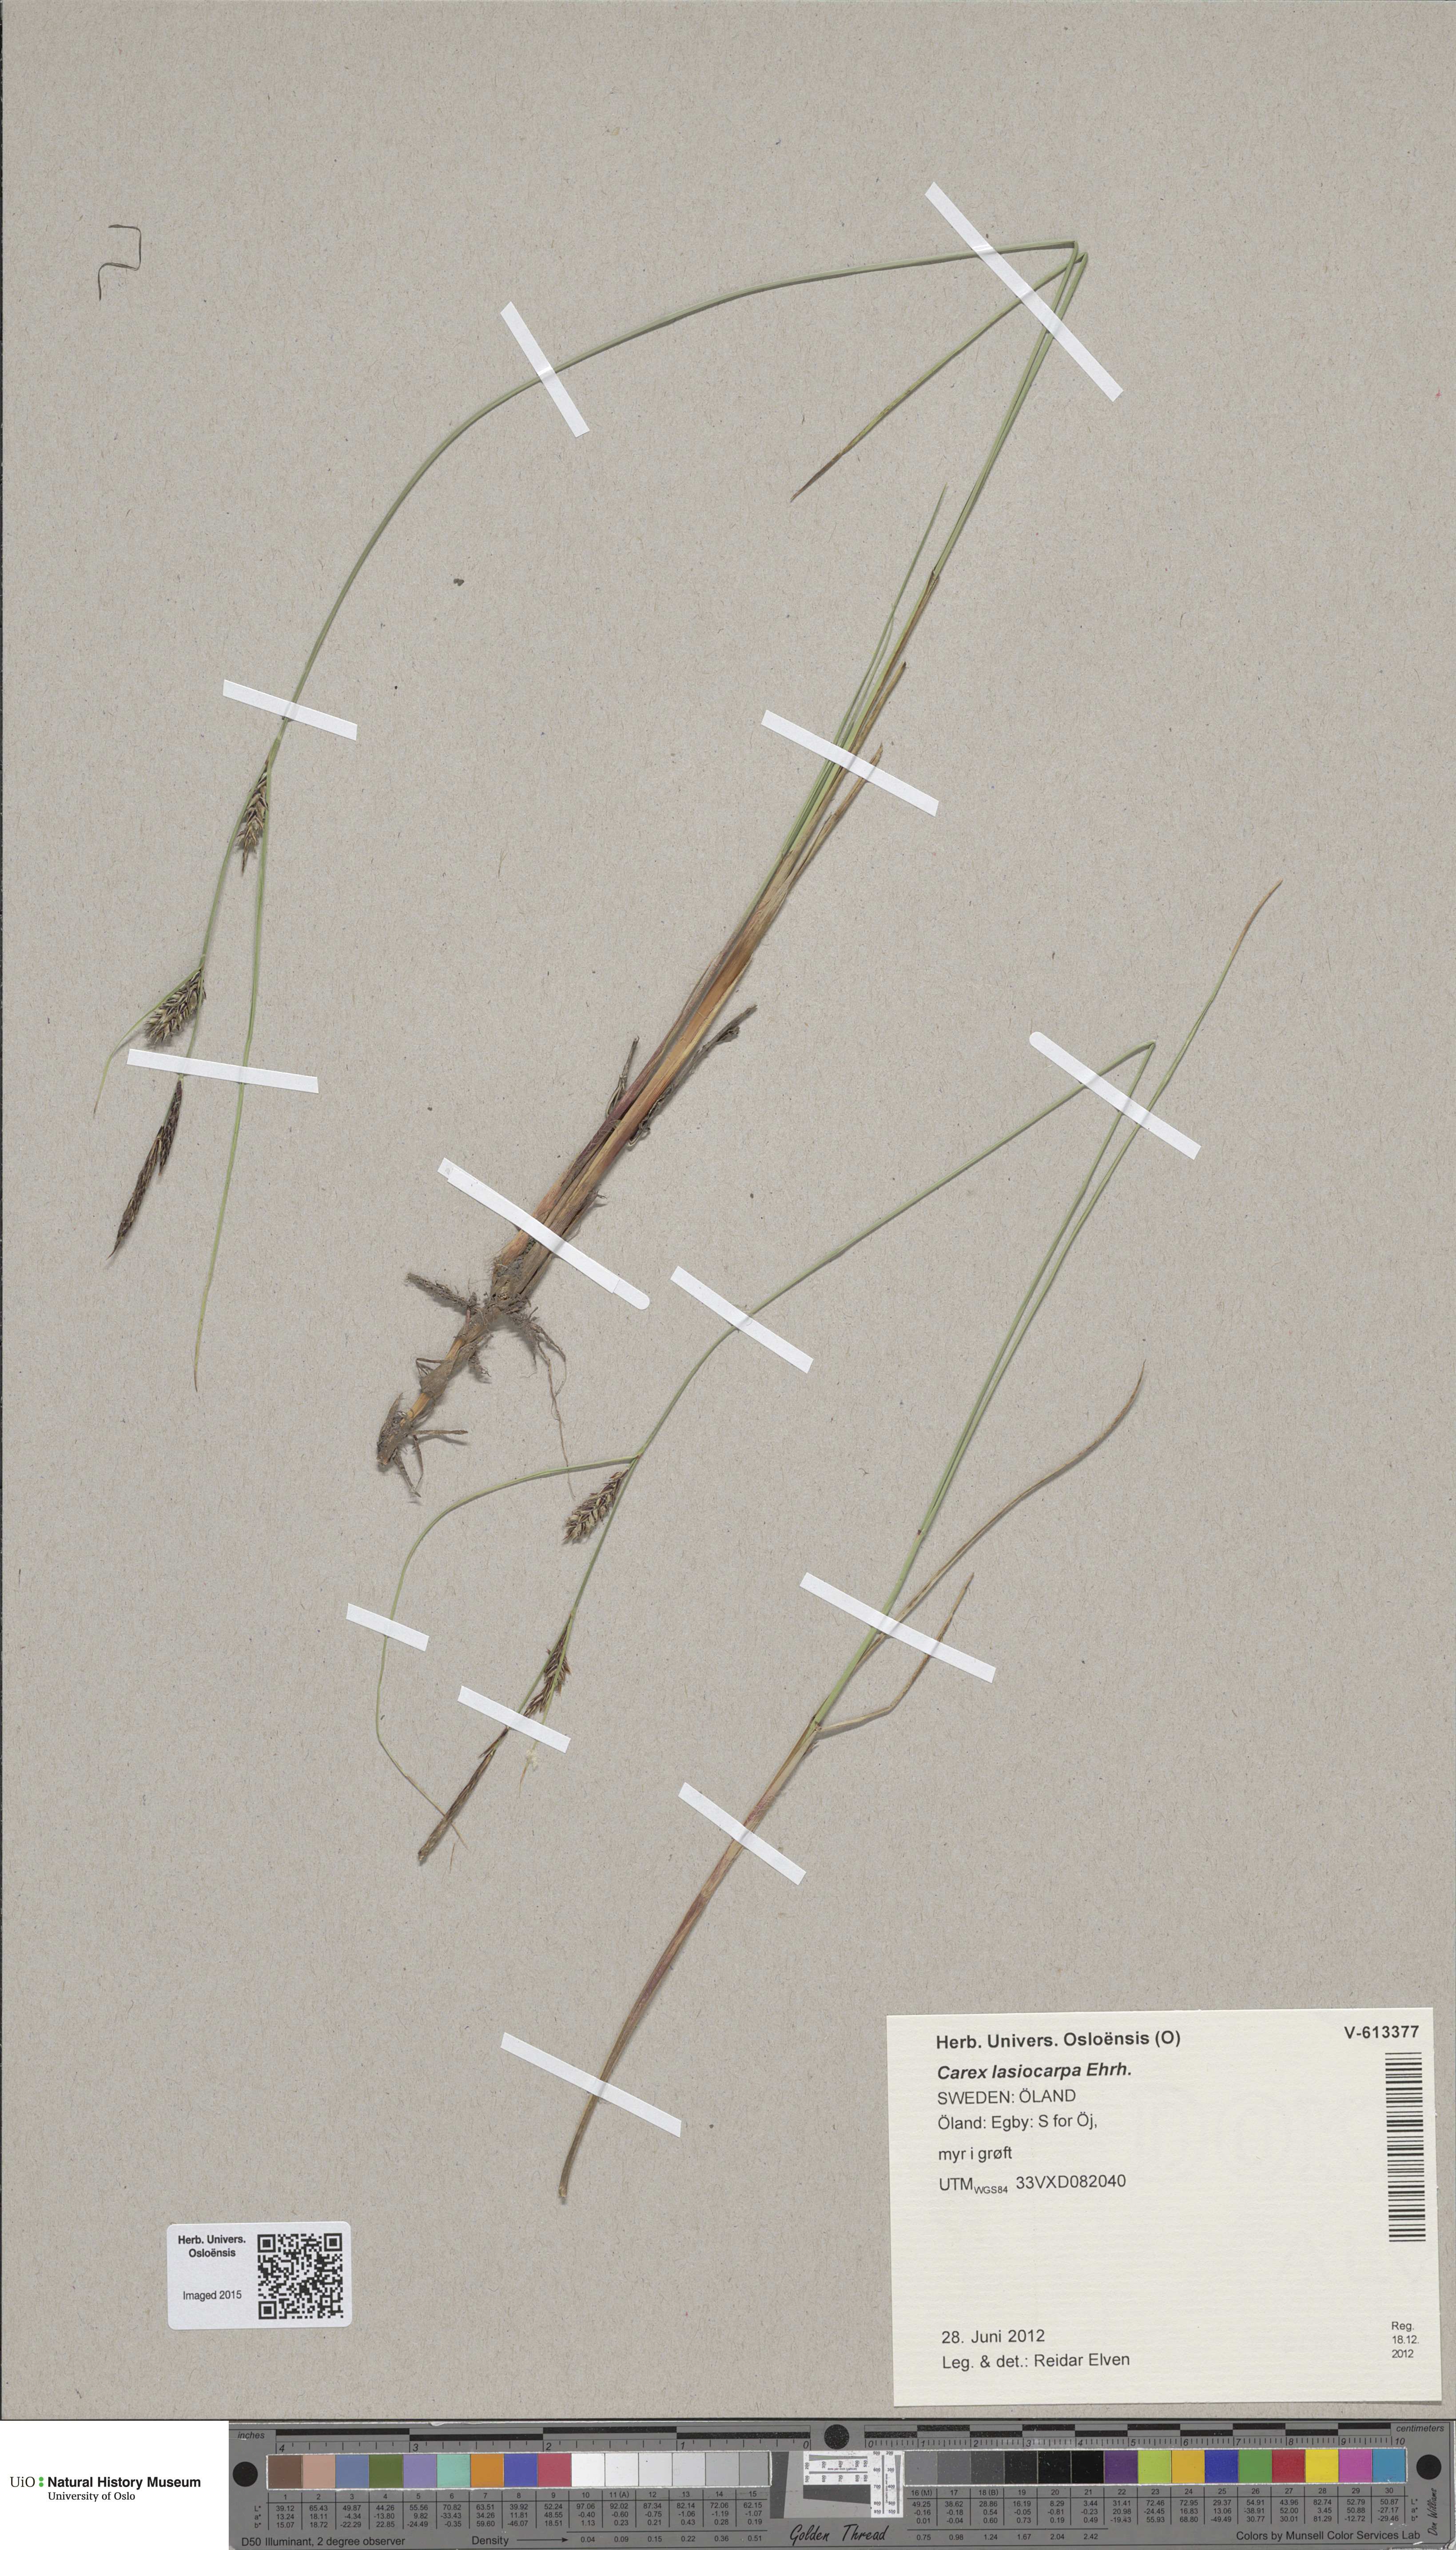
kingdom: Plantae
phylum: Tracheophyta
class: Liliopsida
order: Poales
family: Cyperaceae
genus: Carex
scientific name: Carex lasiocarpa
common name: Slender sedge
